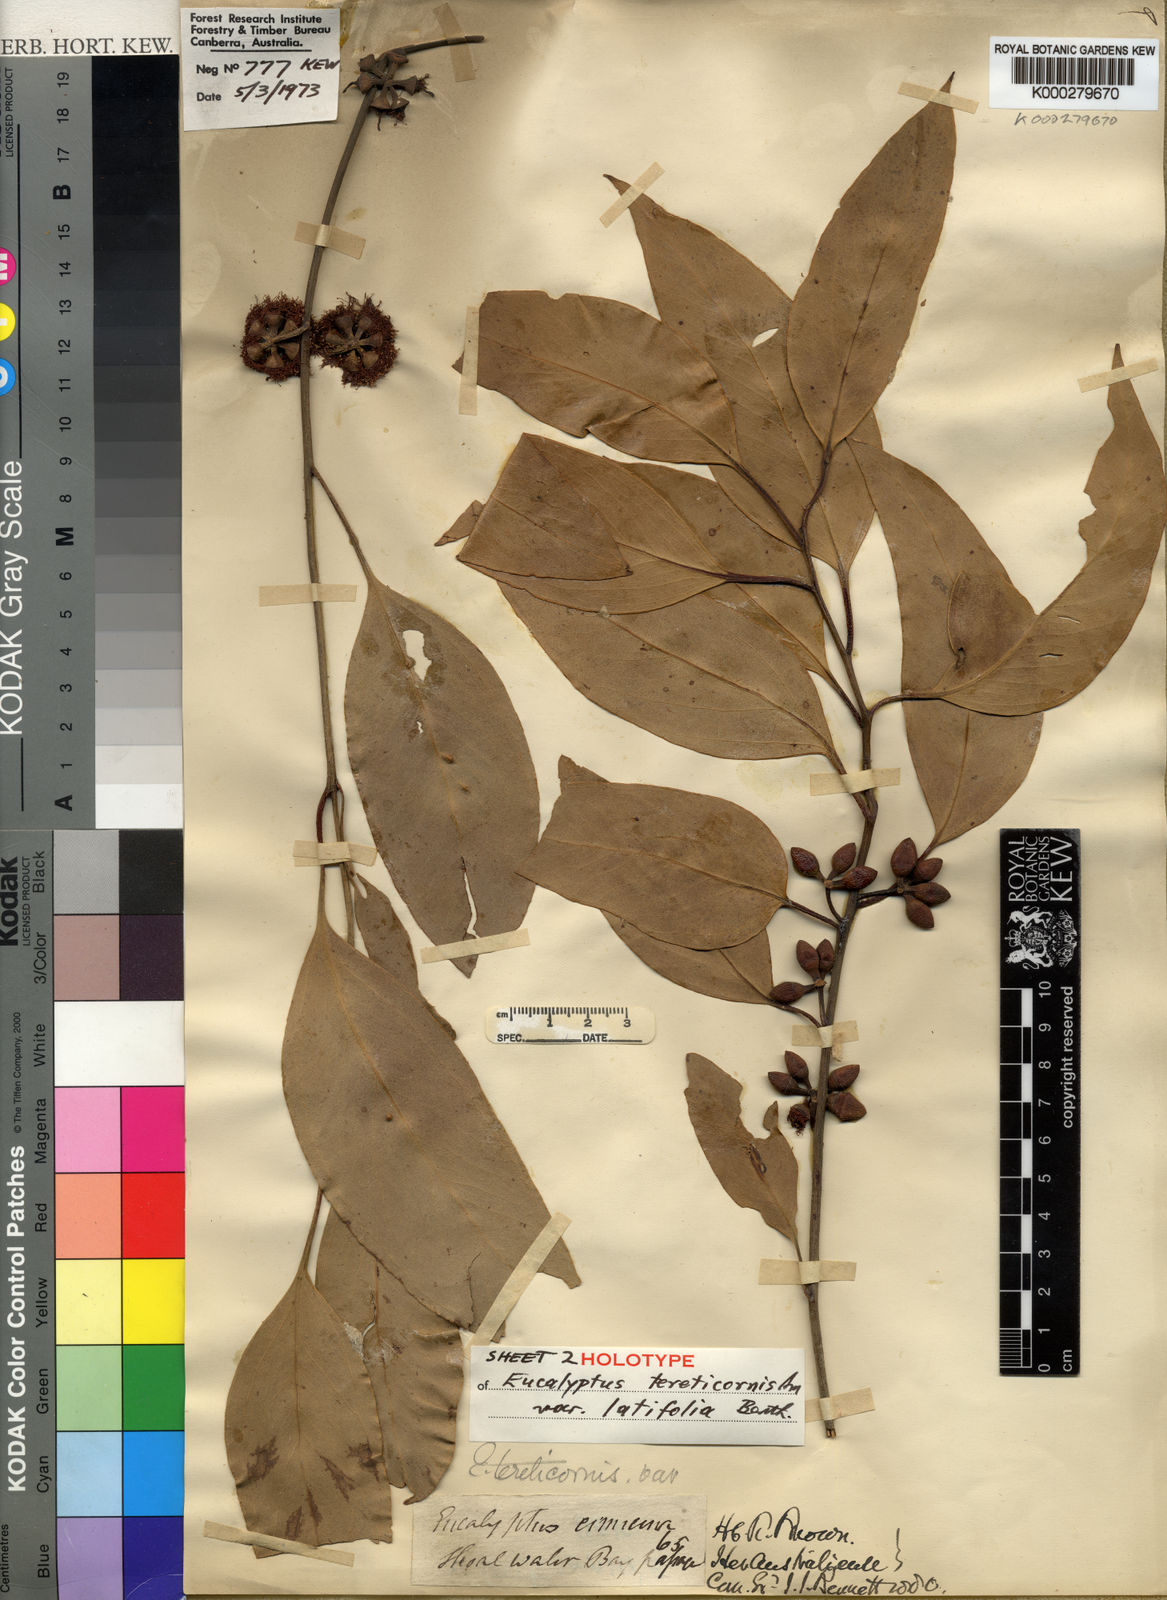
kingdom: Plantae
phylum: Tracheophyta
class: Magnoliopsida
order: Myrtales
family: Myrtaceae
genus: Eucalyptus
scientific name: Eucalyptus tereticornis
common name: Forest redgum
